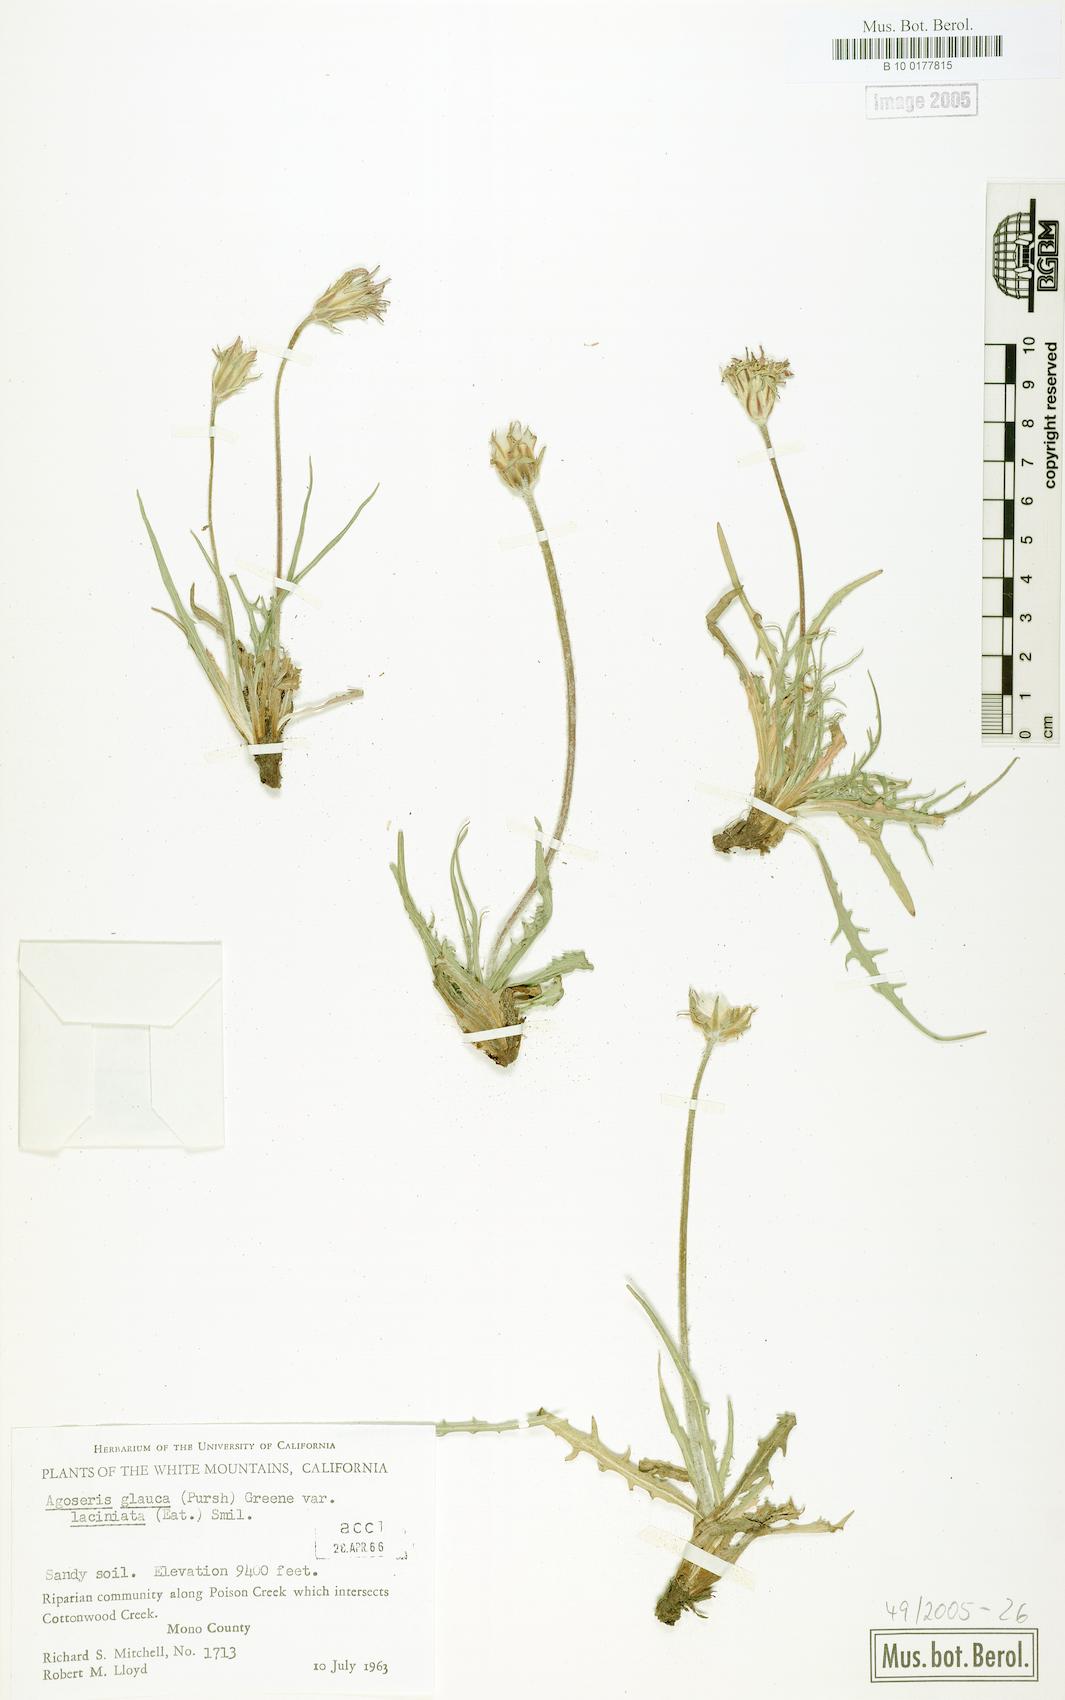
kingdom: Plantae
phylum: Tracheophyta
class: Magnoliopsida
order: Asterales
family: Asteraceae
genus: Agoseris
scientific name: Agoseris parviflora
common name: Steppe agoseris
